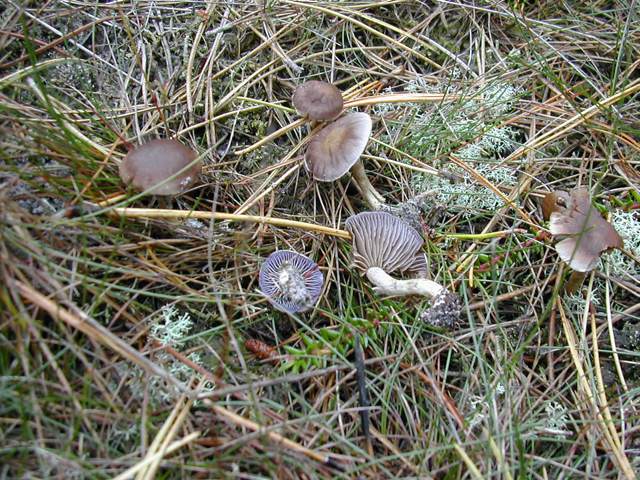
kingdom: Fungi
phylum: Basidiomycota
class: Agaricomycetes
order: Agaricales
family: Cortinariaceae
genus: Cortinarius
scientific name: Cortinarius anomalellus
